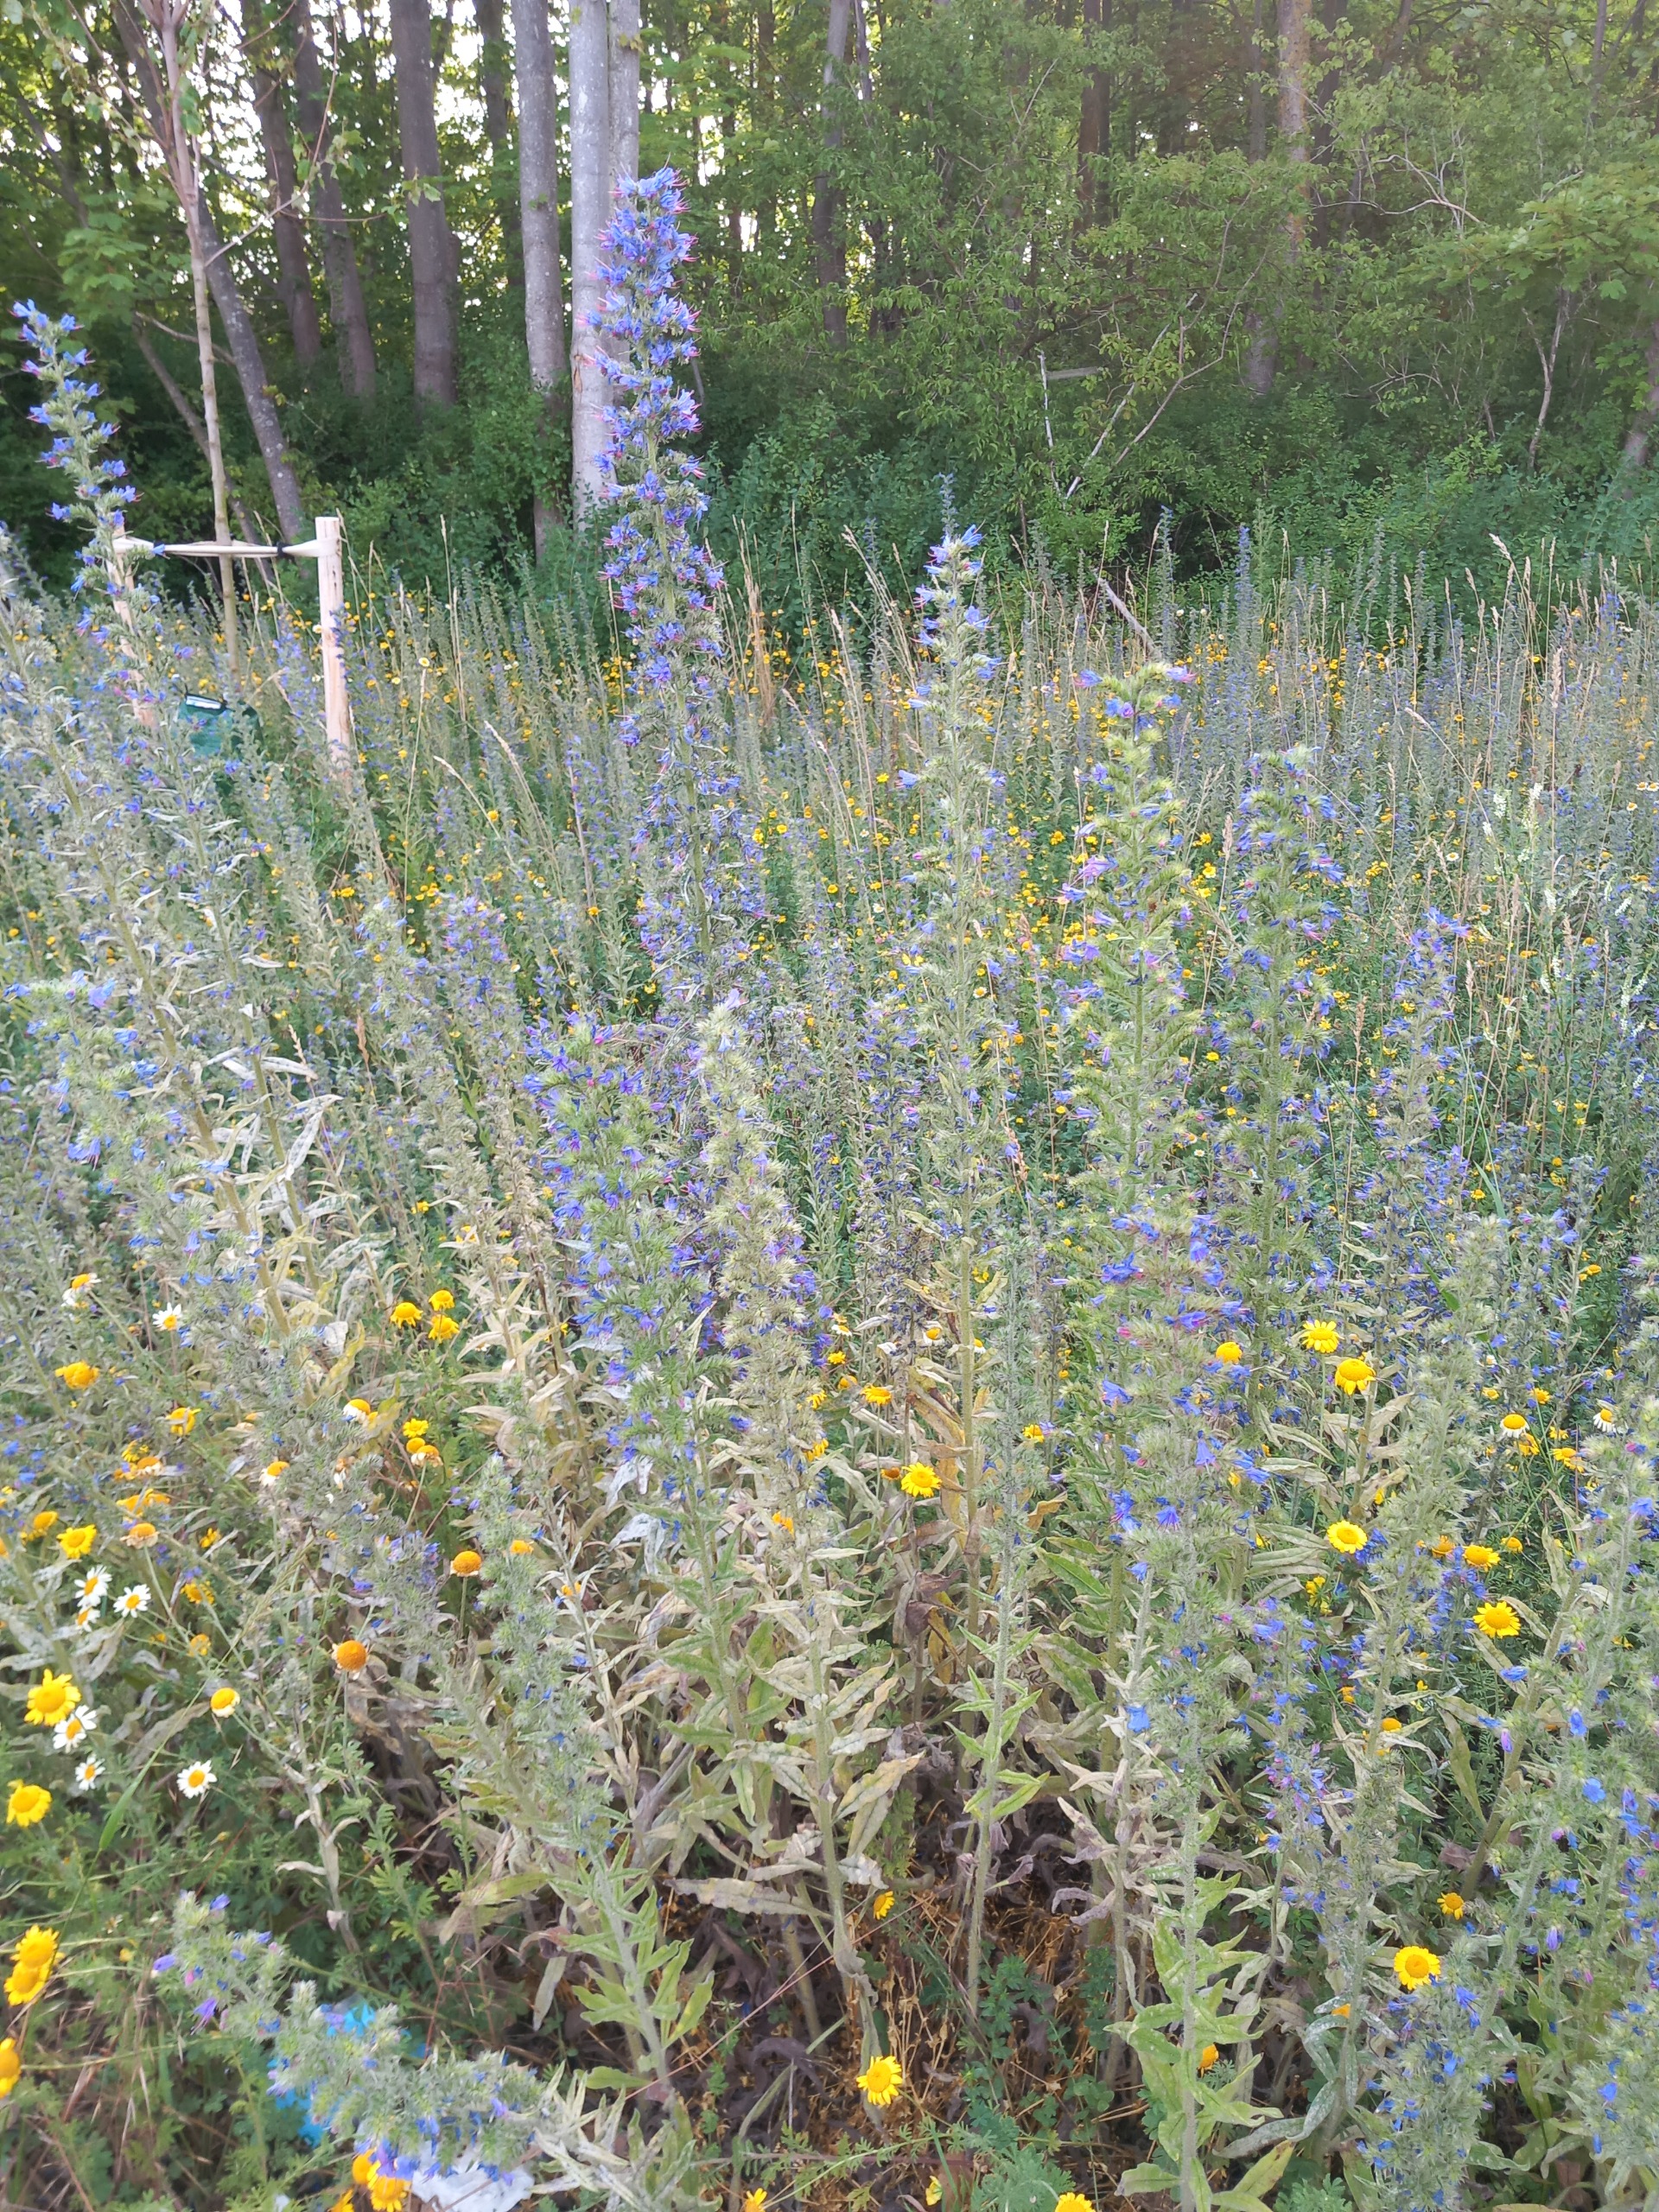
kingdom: Plantae
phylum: Tracheophyta
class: Magnoliopsida
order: Boraginales
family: Boraginaceae
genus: Echium
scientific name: Echium vulgare
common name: Slangehoved
